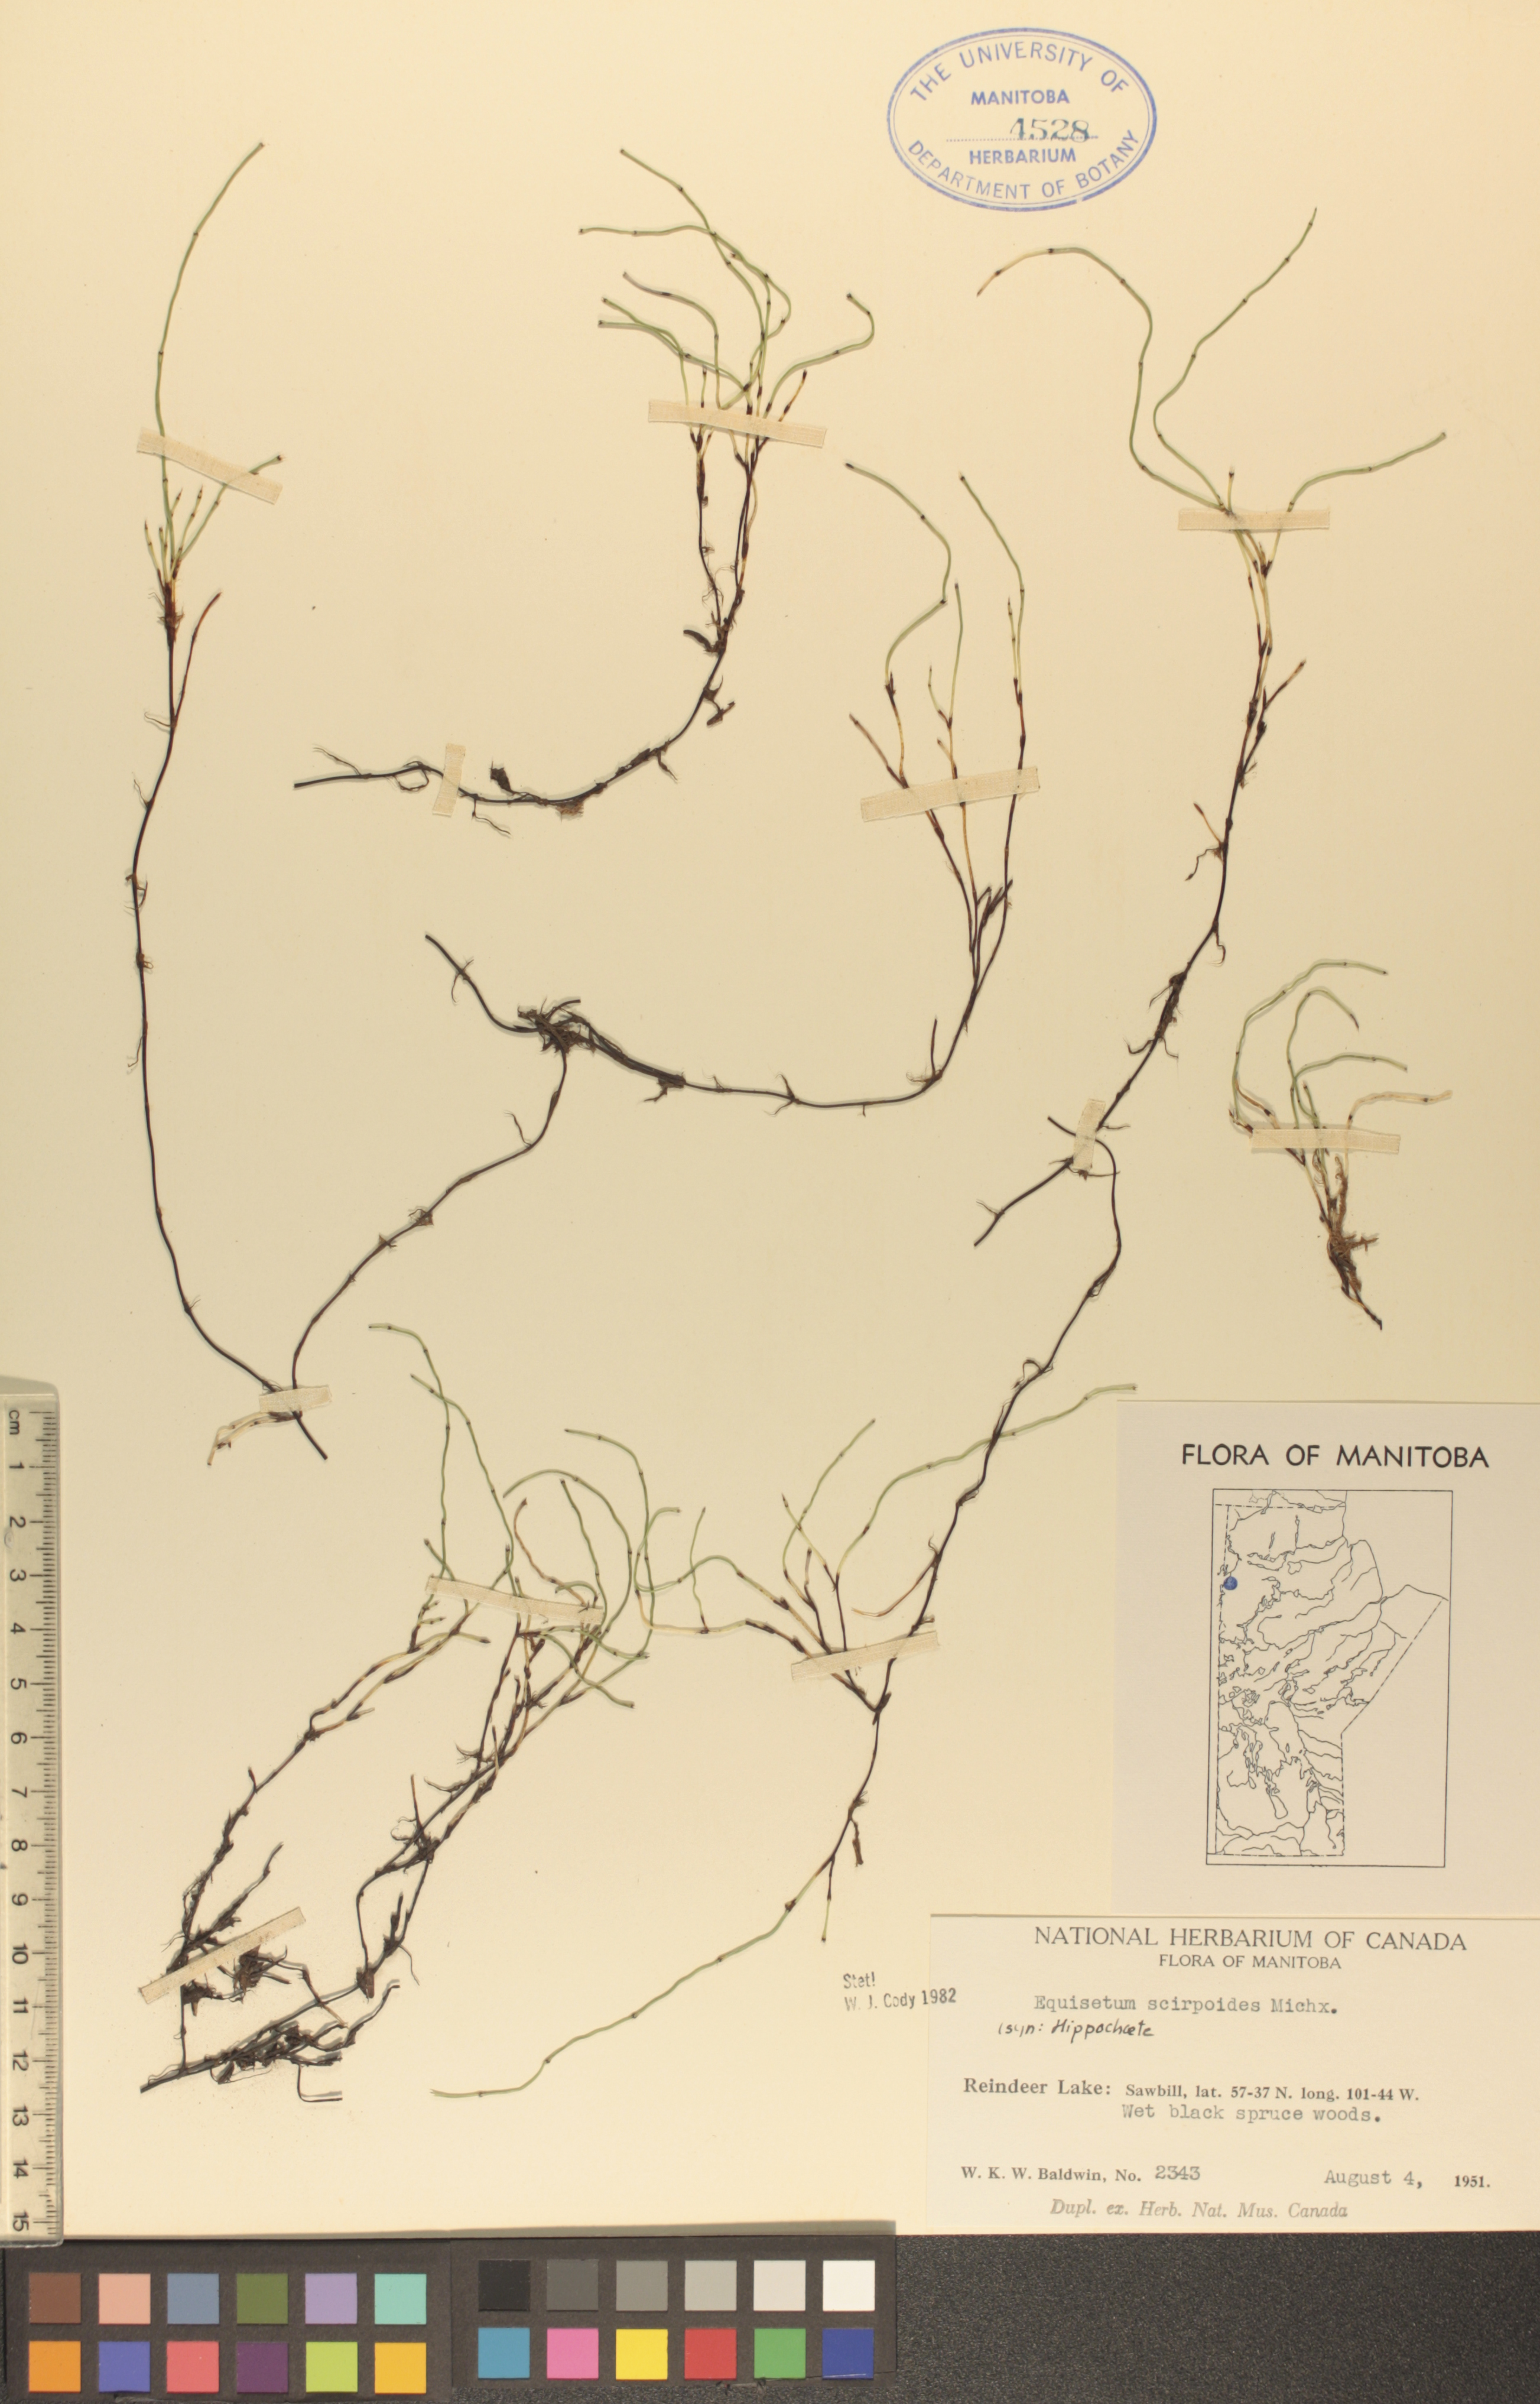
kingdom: Plantae
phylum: Tracheophyta
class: Polypodiopsida
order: Equisetales
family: Equisetaceae
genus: Equisetum
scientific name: Equisetum scirpoides
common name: Delicate horsetail
